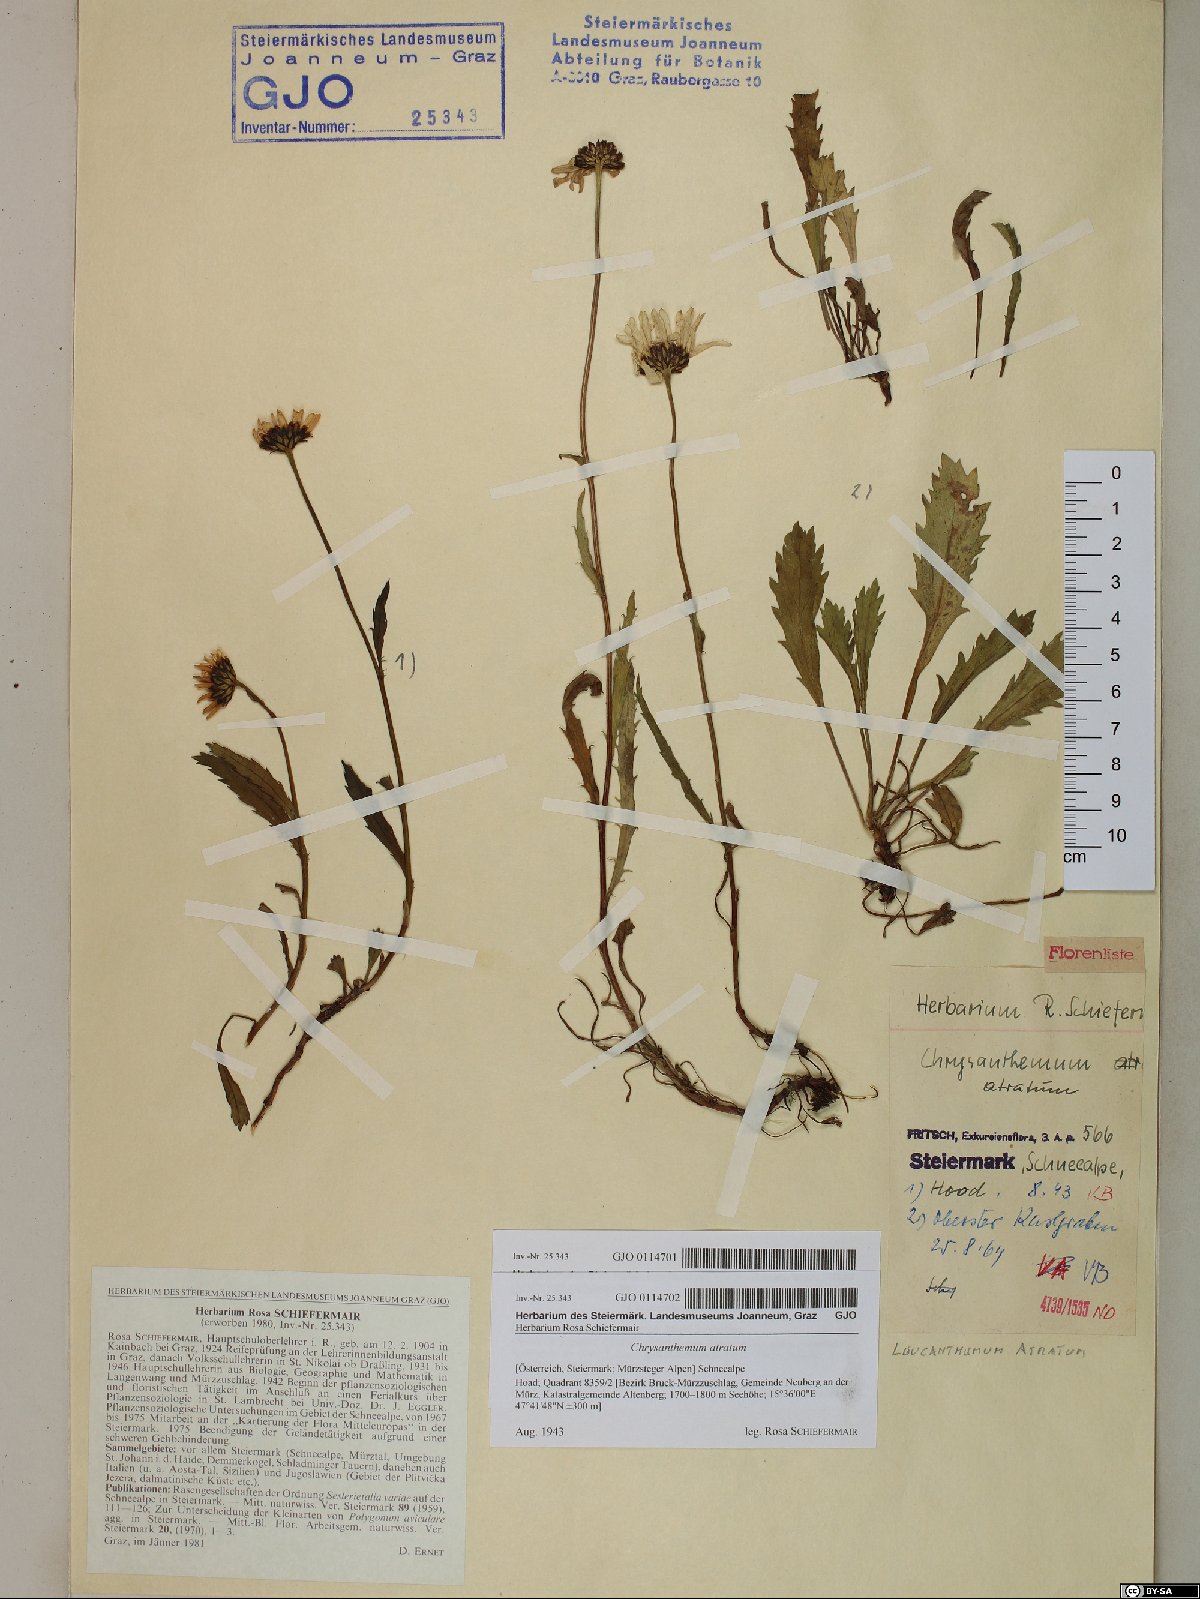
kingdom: Plantae
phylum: Tracheophyta
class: Magnoliopsida
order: Asterales
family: Asteraceae
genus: Leucanthemum
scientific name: Leucanthemum atratum
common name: Saw-leaved moon-daisy
